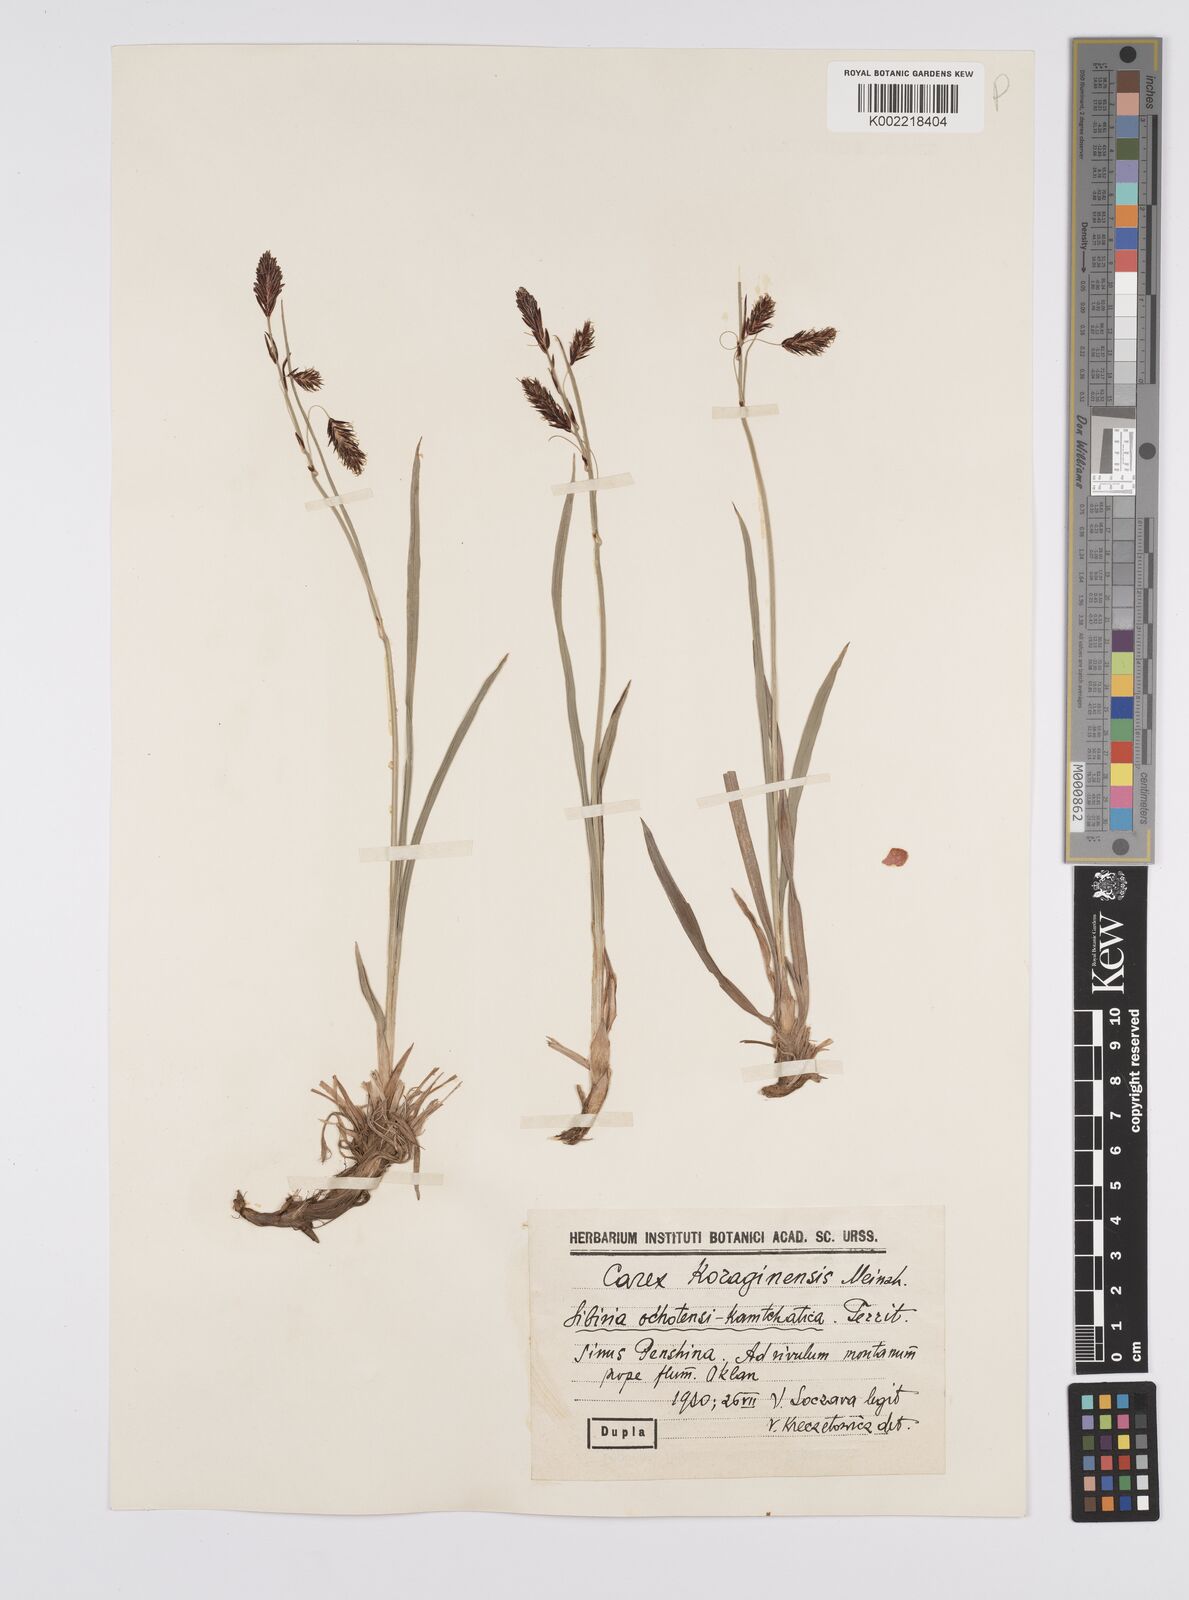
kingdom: Plantae
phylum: Tracheophyta
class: Liliopsida
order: Poales
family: Cyperaceae
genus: Carex
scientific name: Carex scita
